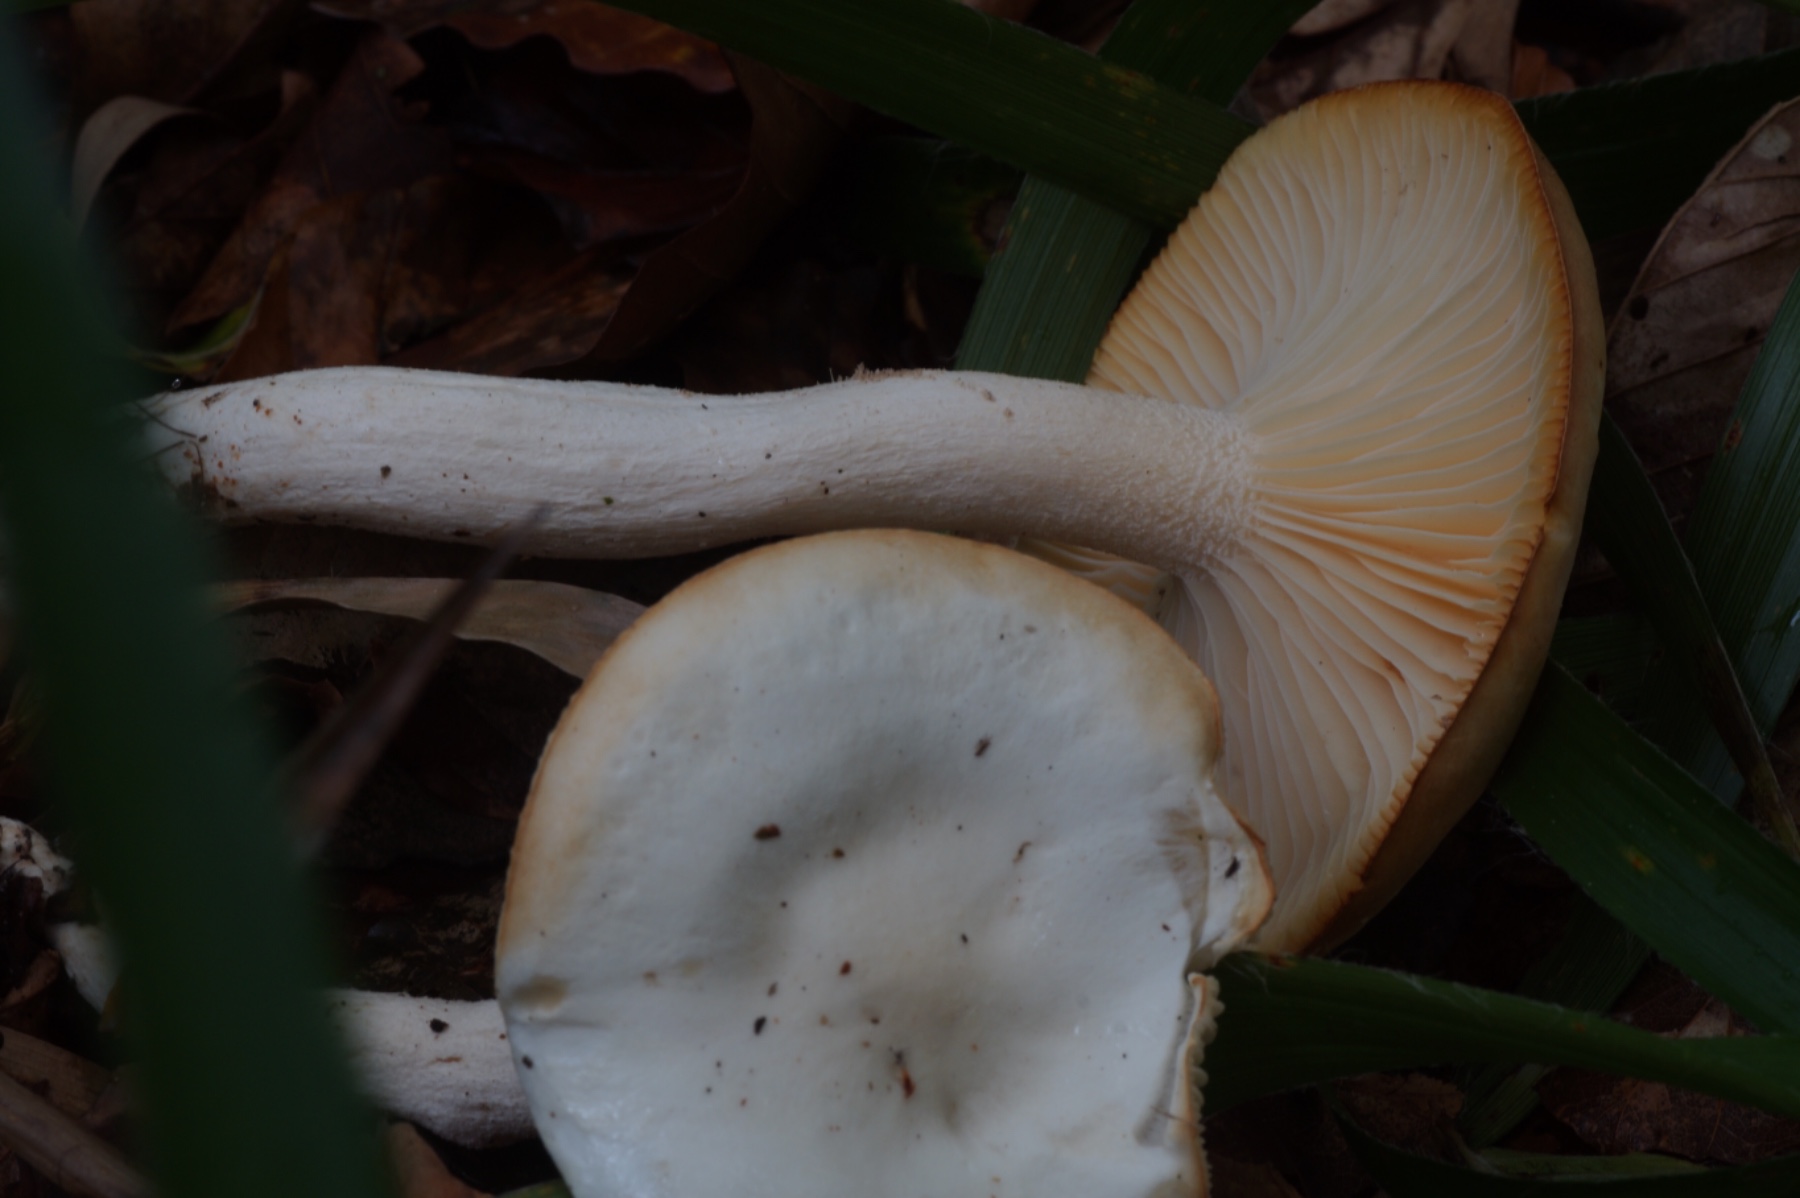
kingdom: Fungi
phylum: Basidiomycota
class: Agaricomycetes
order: Agaricales
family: Hygrophoraceae
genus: Hygrophorus
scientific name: Hygrophorus discoxanthus
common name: ildelugtende sneglehat
